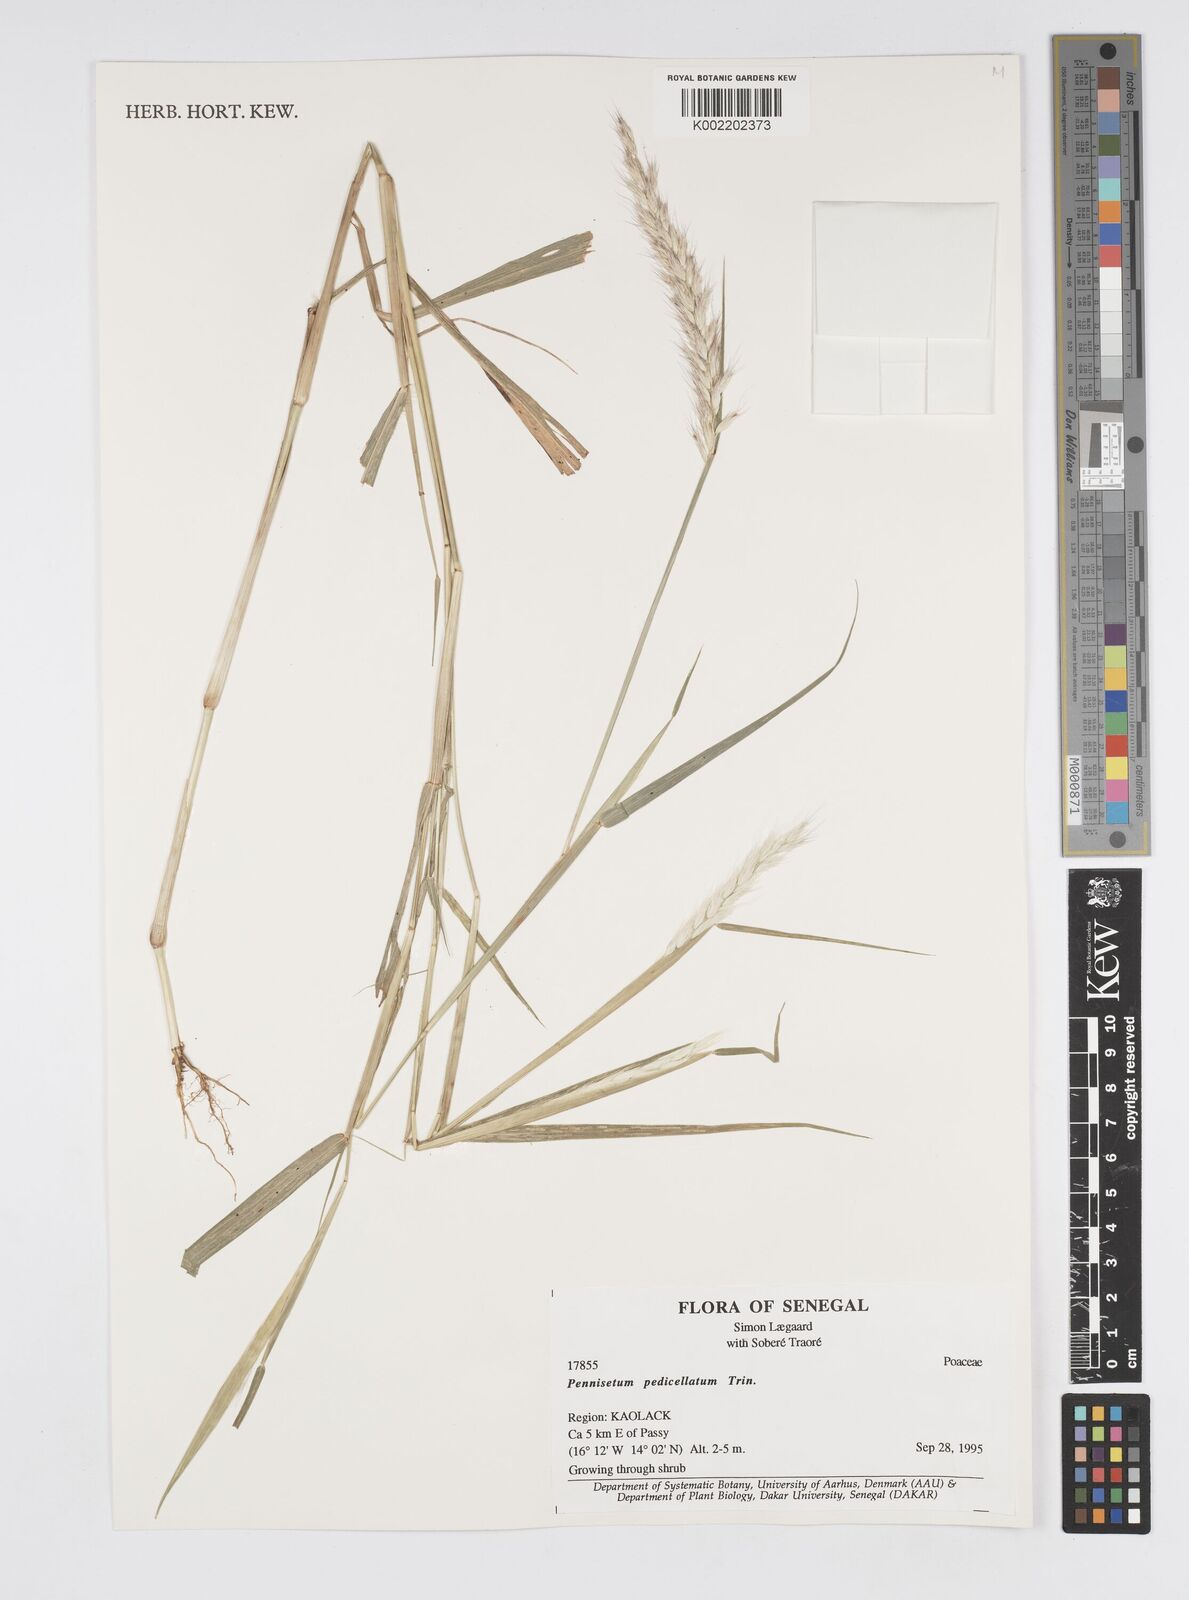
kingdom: Plantae
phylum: Tracheophyta
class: Liliopsida
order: Poales
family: Poaceae
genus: Cenchrus
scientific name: Cenchrus pedicellatus
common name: Hairy fountain grass
